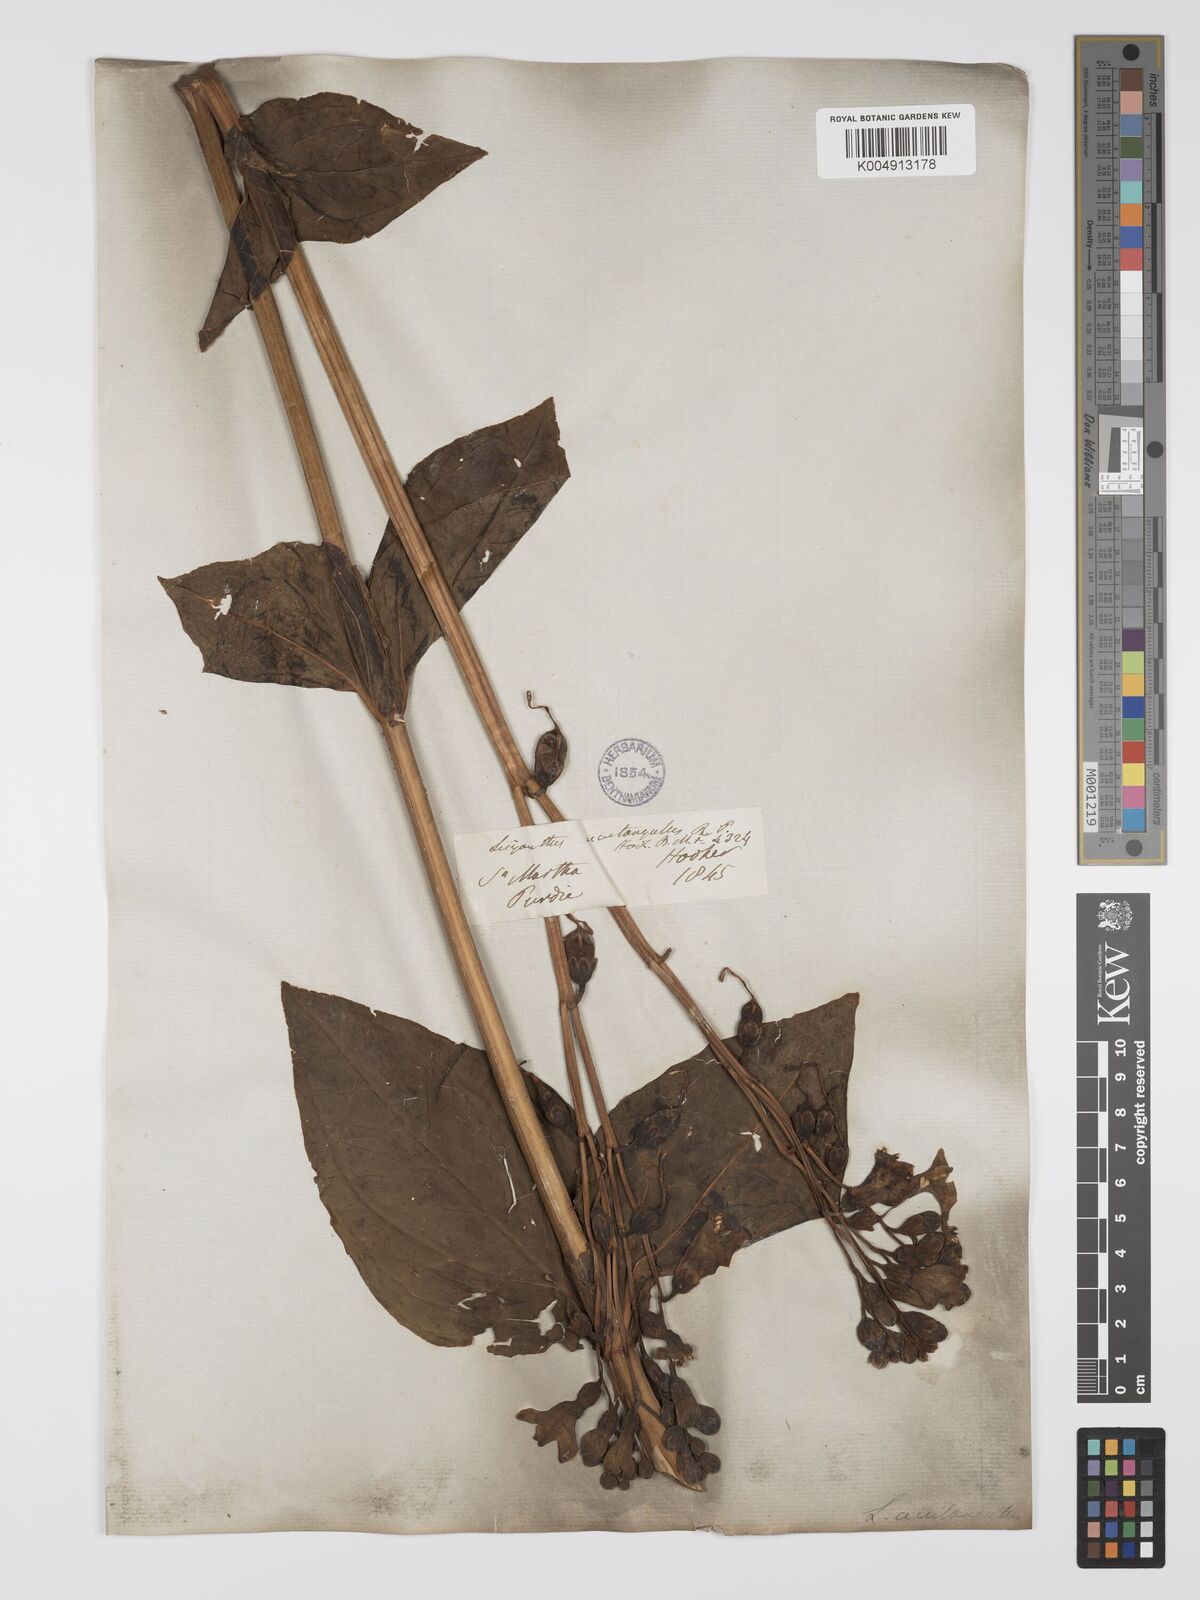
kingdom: Plantae
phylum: Tracheophyta
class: Magnoliopsida
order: Gentianales
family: Gentianaceae
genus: Chelonanthus
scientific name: Chelonanthus alatus
